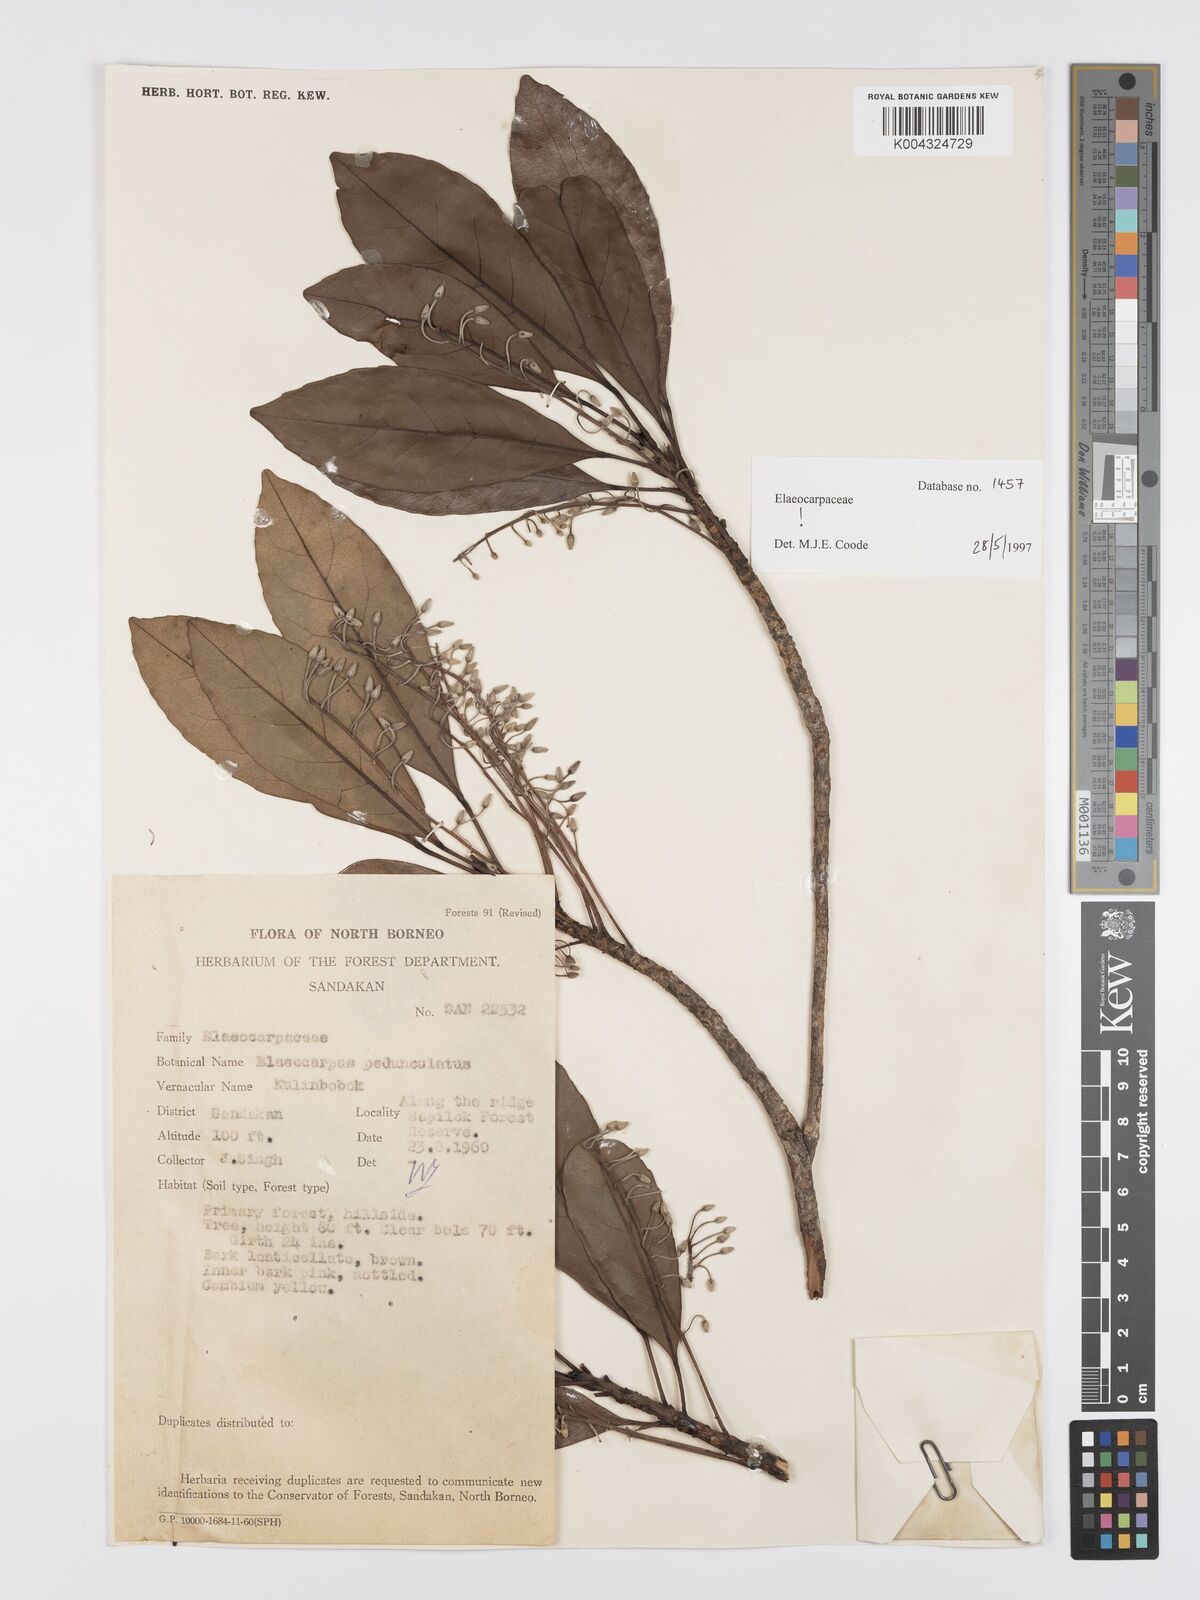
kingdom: Plantae
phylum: Tracheophyta
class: Magnoliopsida
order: Oxalidales
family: Elaeocarpaceae
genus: Elaeocarpus
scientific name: Elaeocarpus pedunculatus
